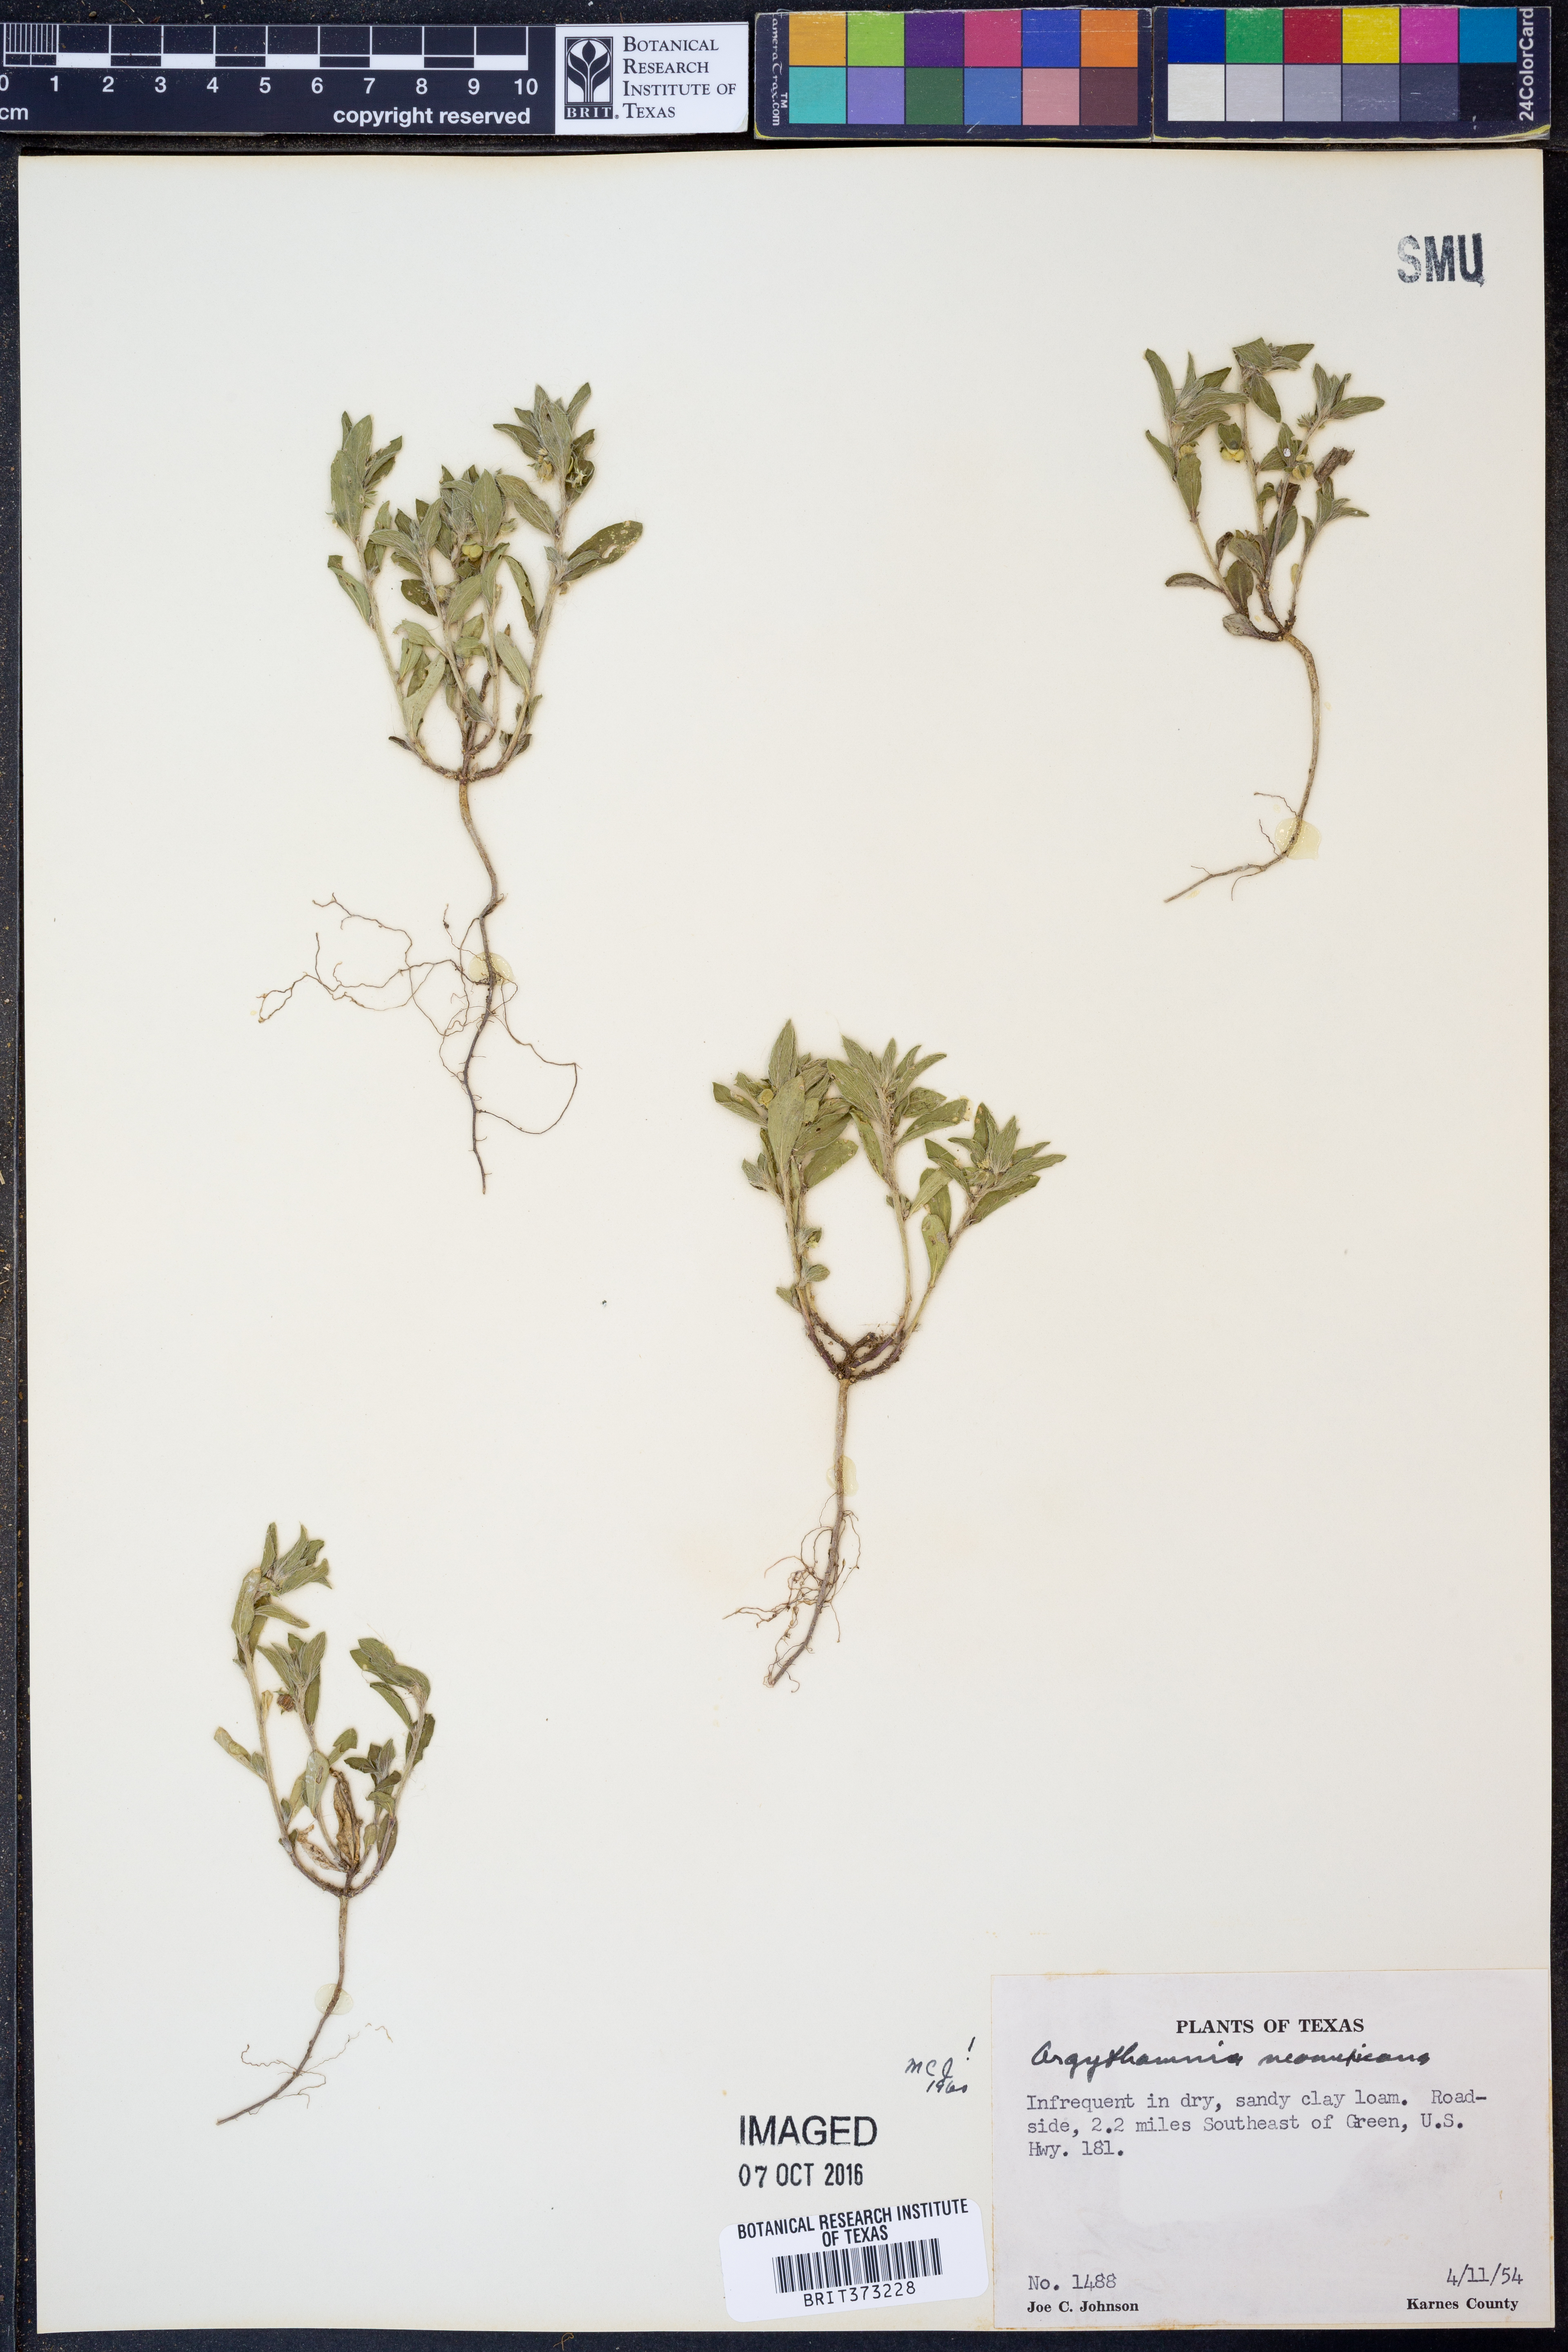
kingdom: Plantae
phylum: Tracheophyta
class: Magnoliopsida
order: Malpighiales
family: Euphorbiaceae
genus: Ditaxis
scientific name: Ditaxis serrata
